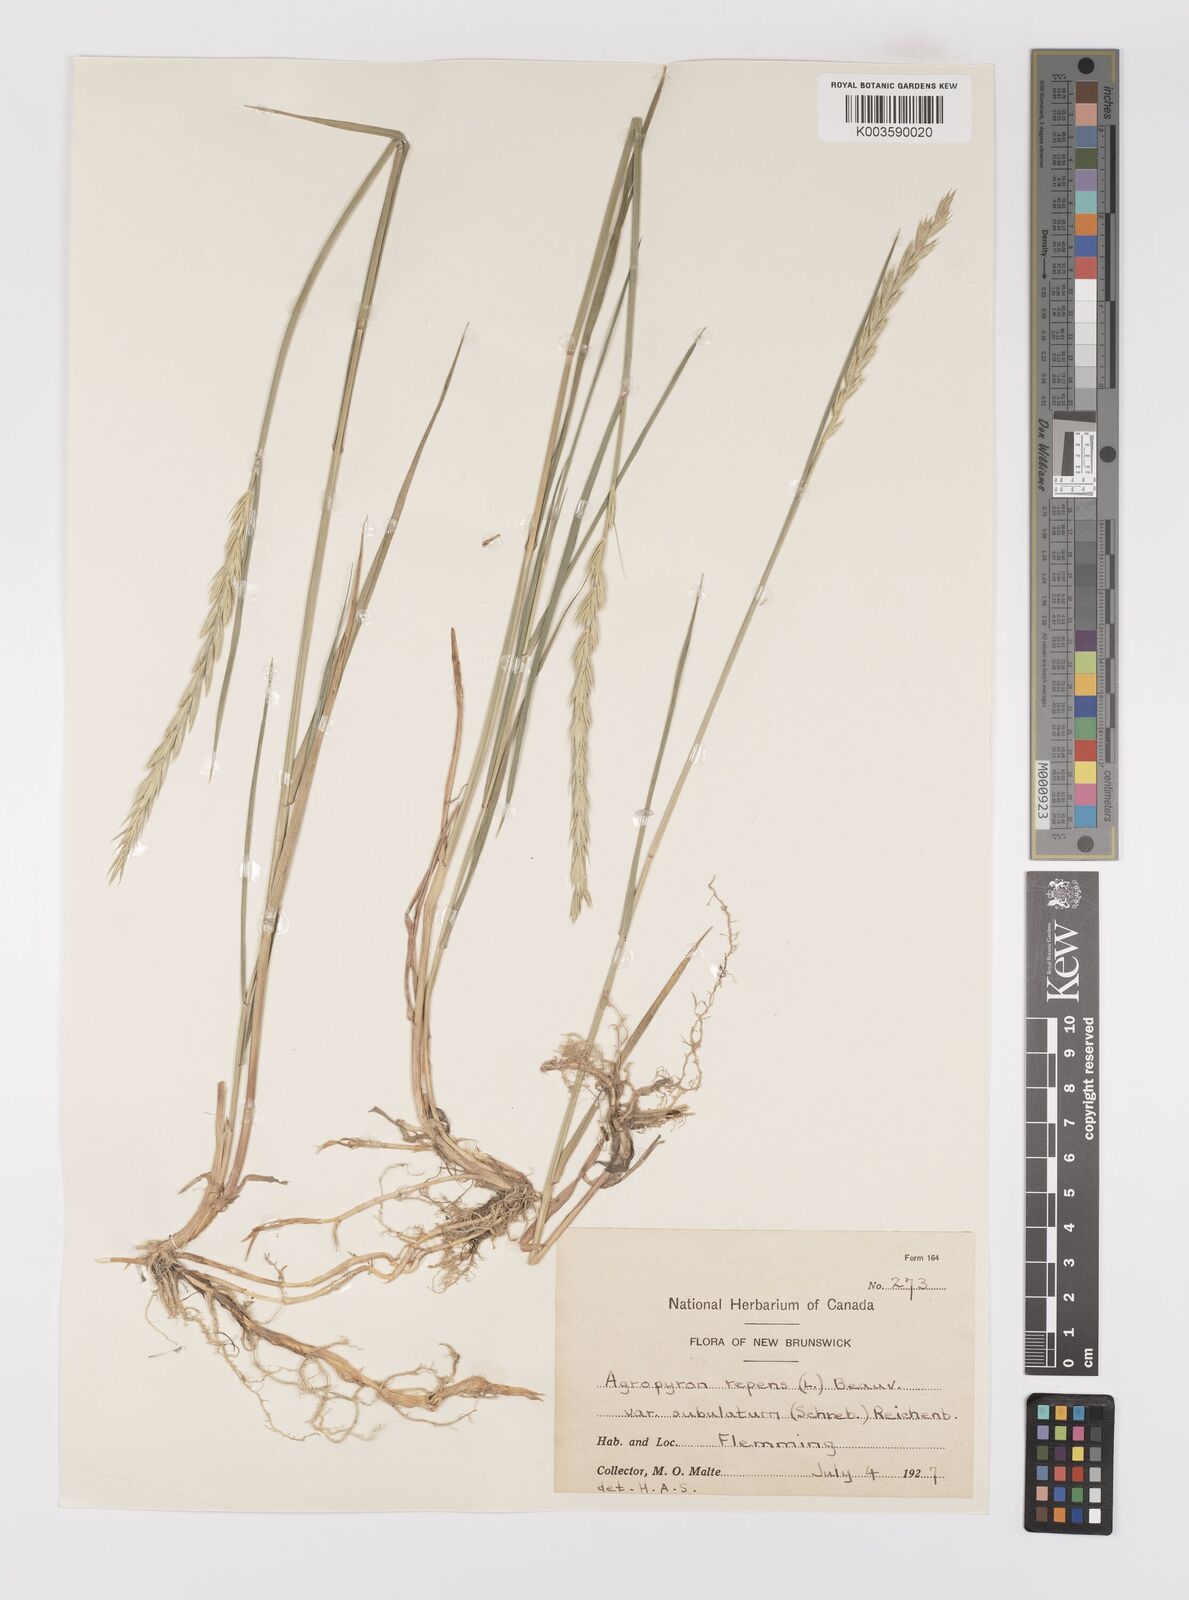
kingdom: Plantae
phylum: Tracheophyta
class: Liliopsida
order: Poales
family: Poaceae
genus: Elymus
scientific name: Elymus repens
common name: Quackgrass
